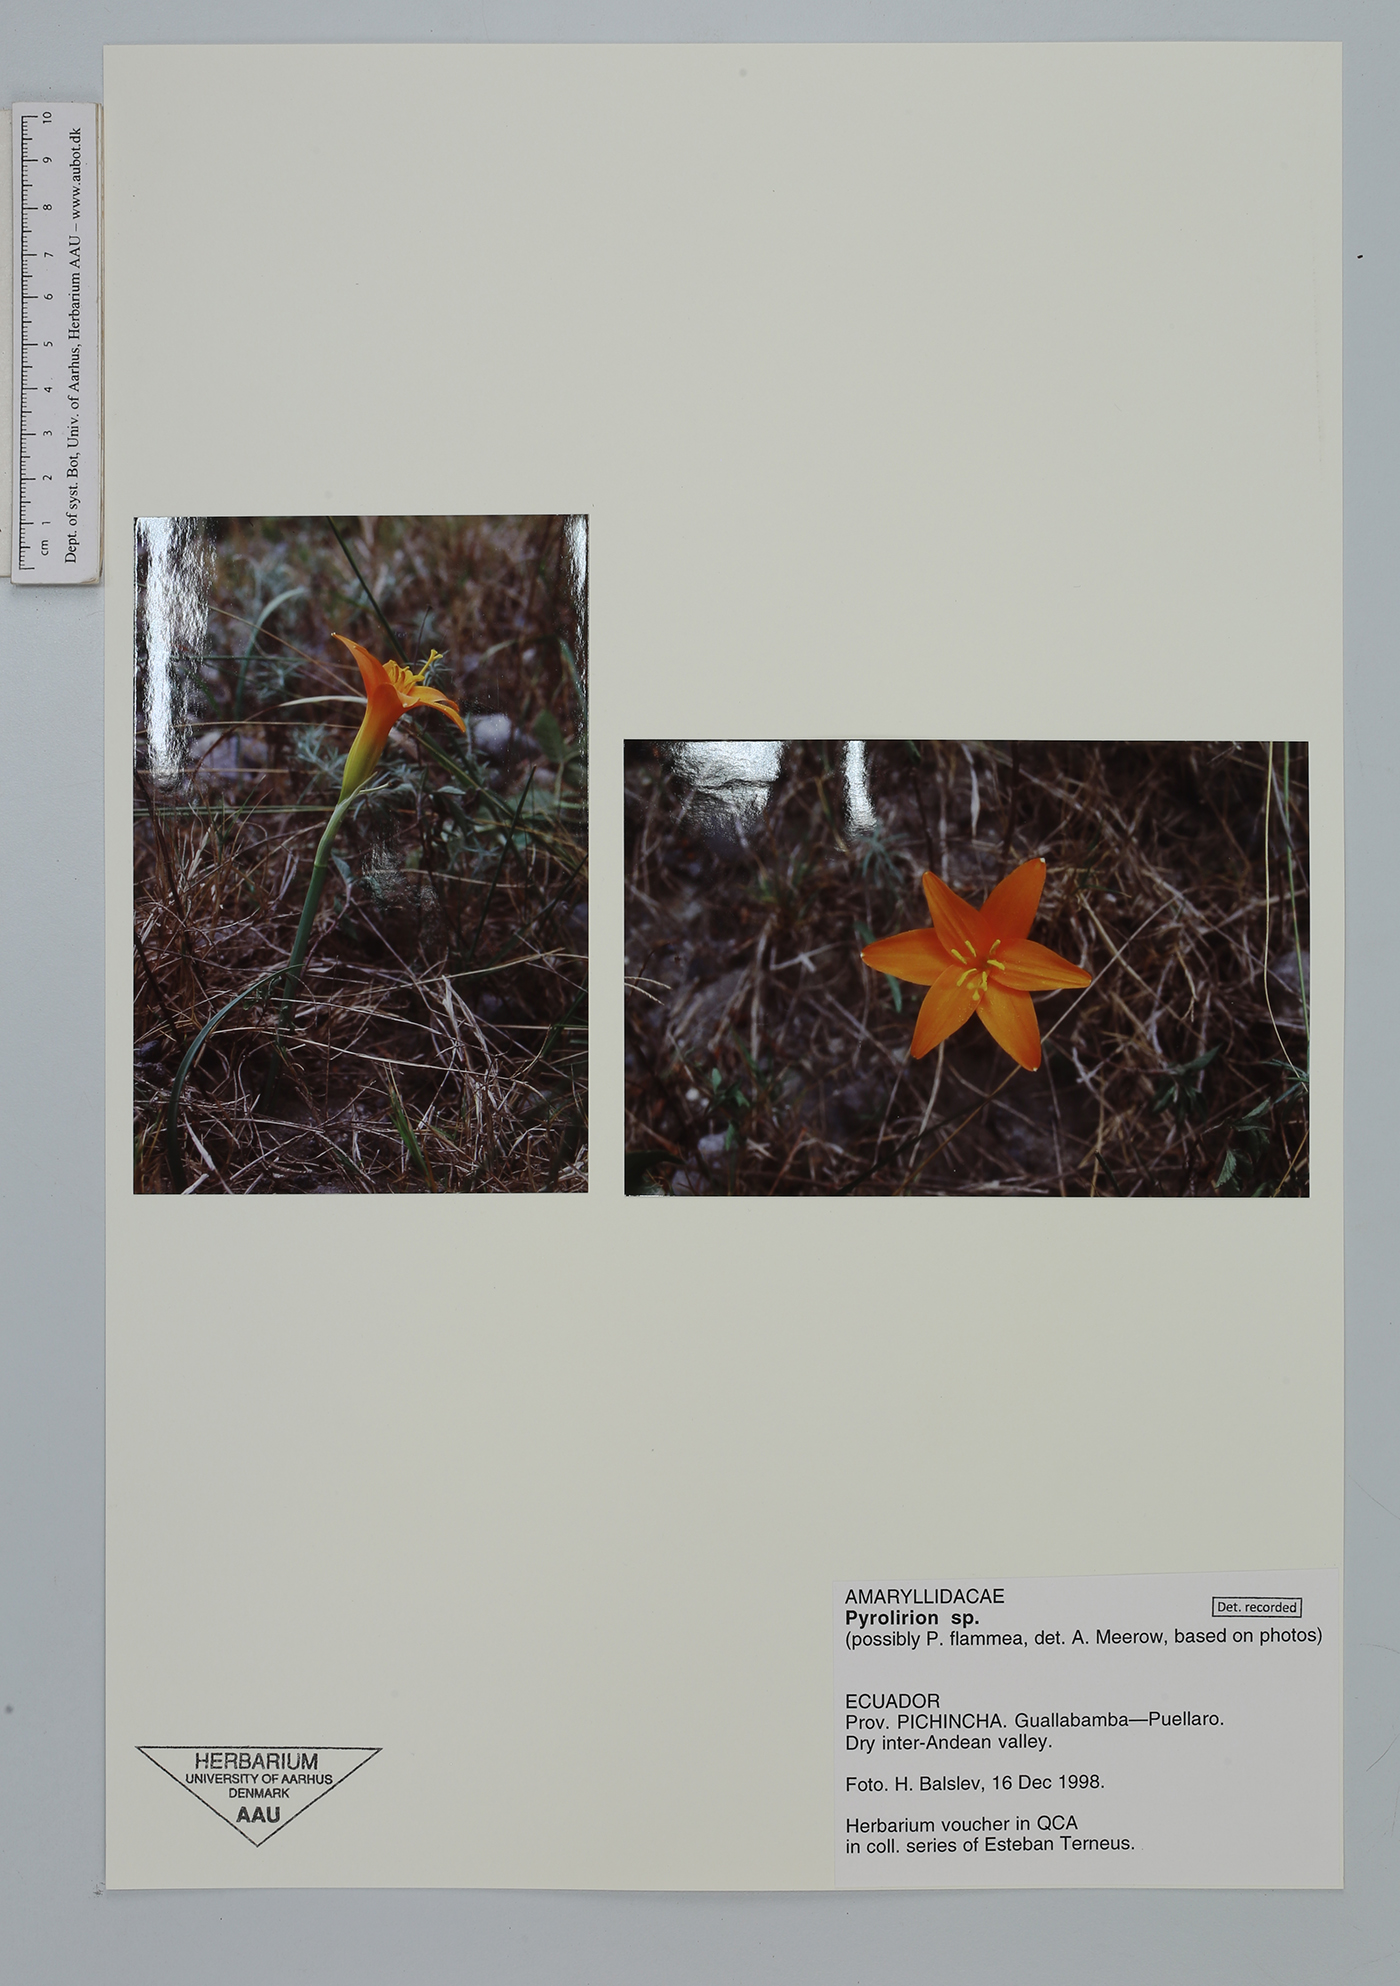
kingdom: Plantae
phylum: Tracheophyta
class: Liliopsida
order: Asparagales
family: Amaryllidaceae
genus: Pyrolirion
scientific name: Pyrolirion
